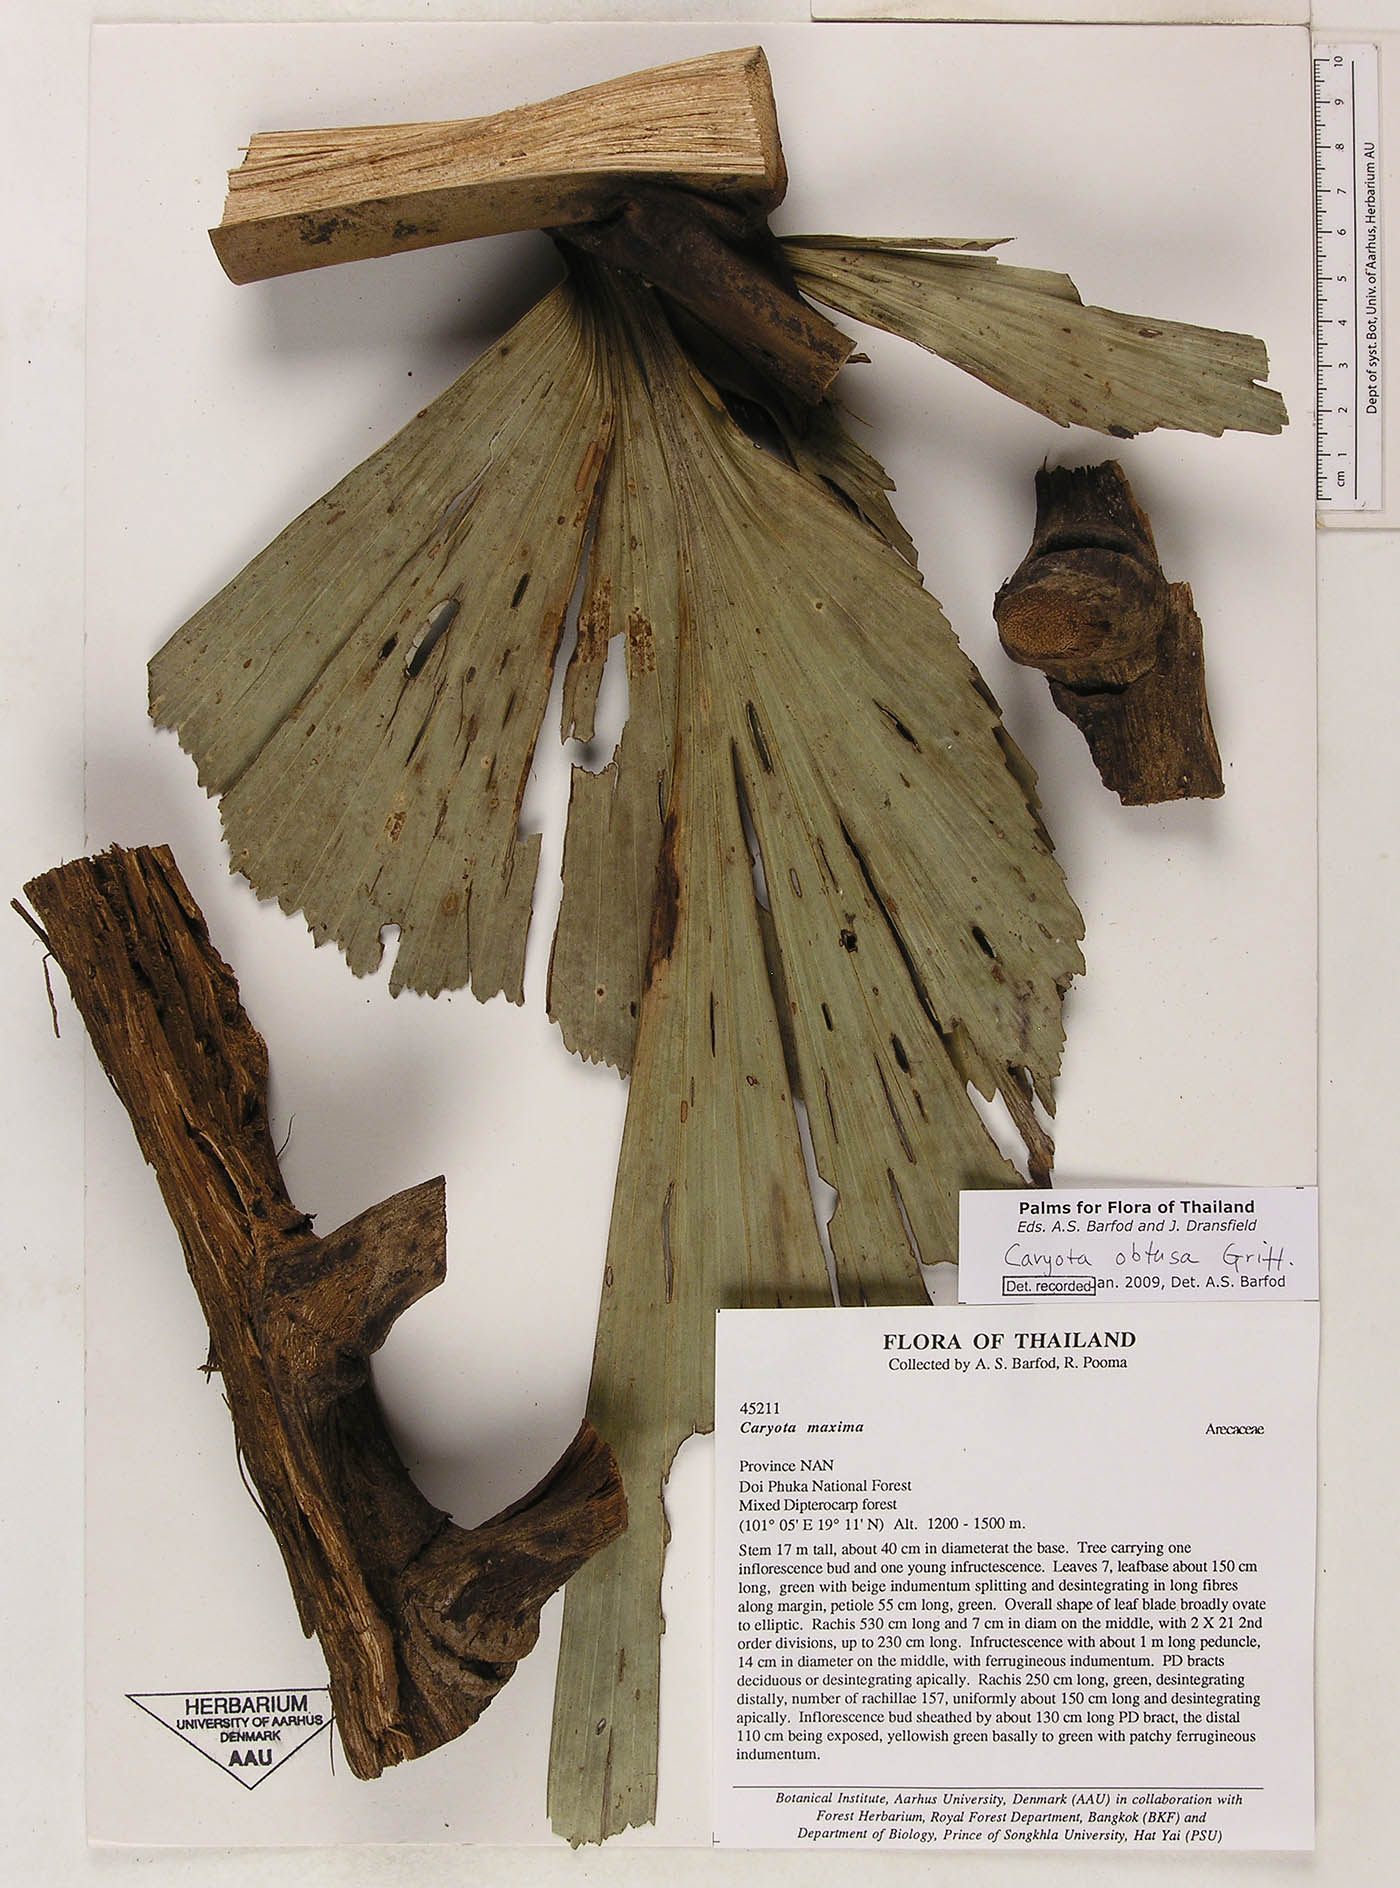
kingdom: Plantae
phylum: Tracheophyta
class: Liliopsida
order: Arecales
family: Arecaceae
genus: Caryota
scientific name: Caryota obtusa
